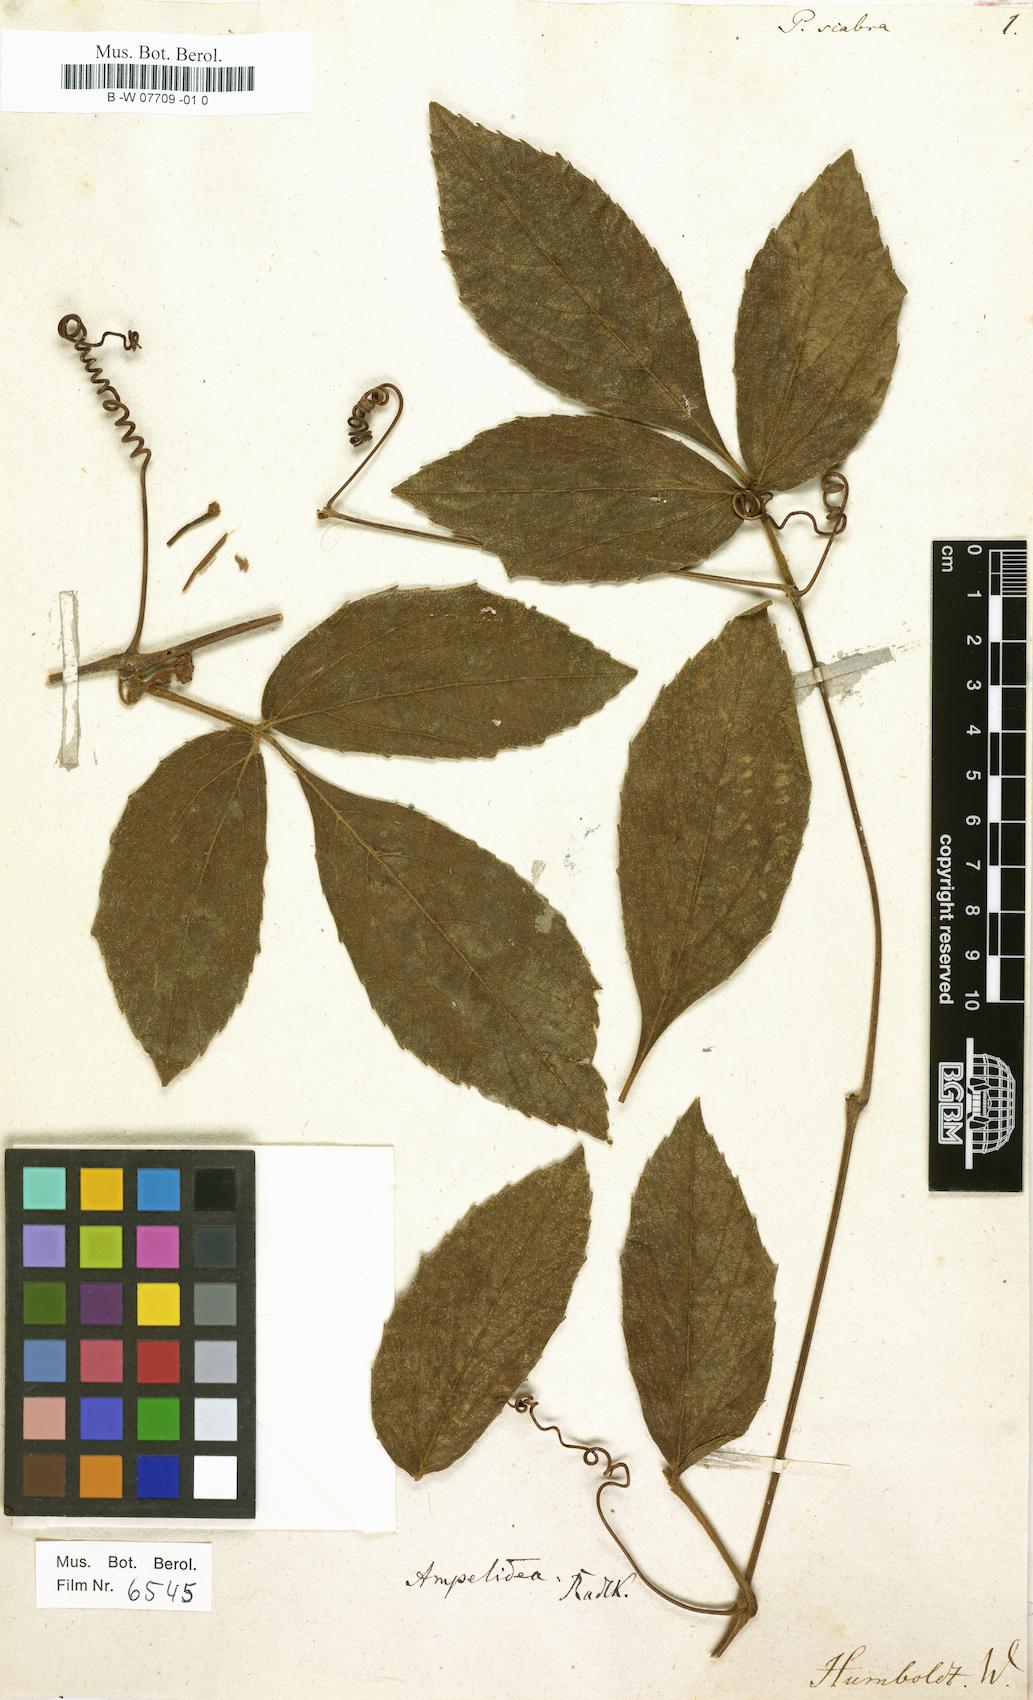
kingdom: Plantae
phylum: Tracheophyta
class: Magnoliopsida
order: Sapindales
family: Sapindaceae
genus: Paullinia
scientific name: Paullinia scabra
